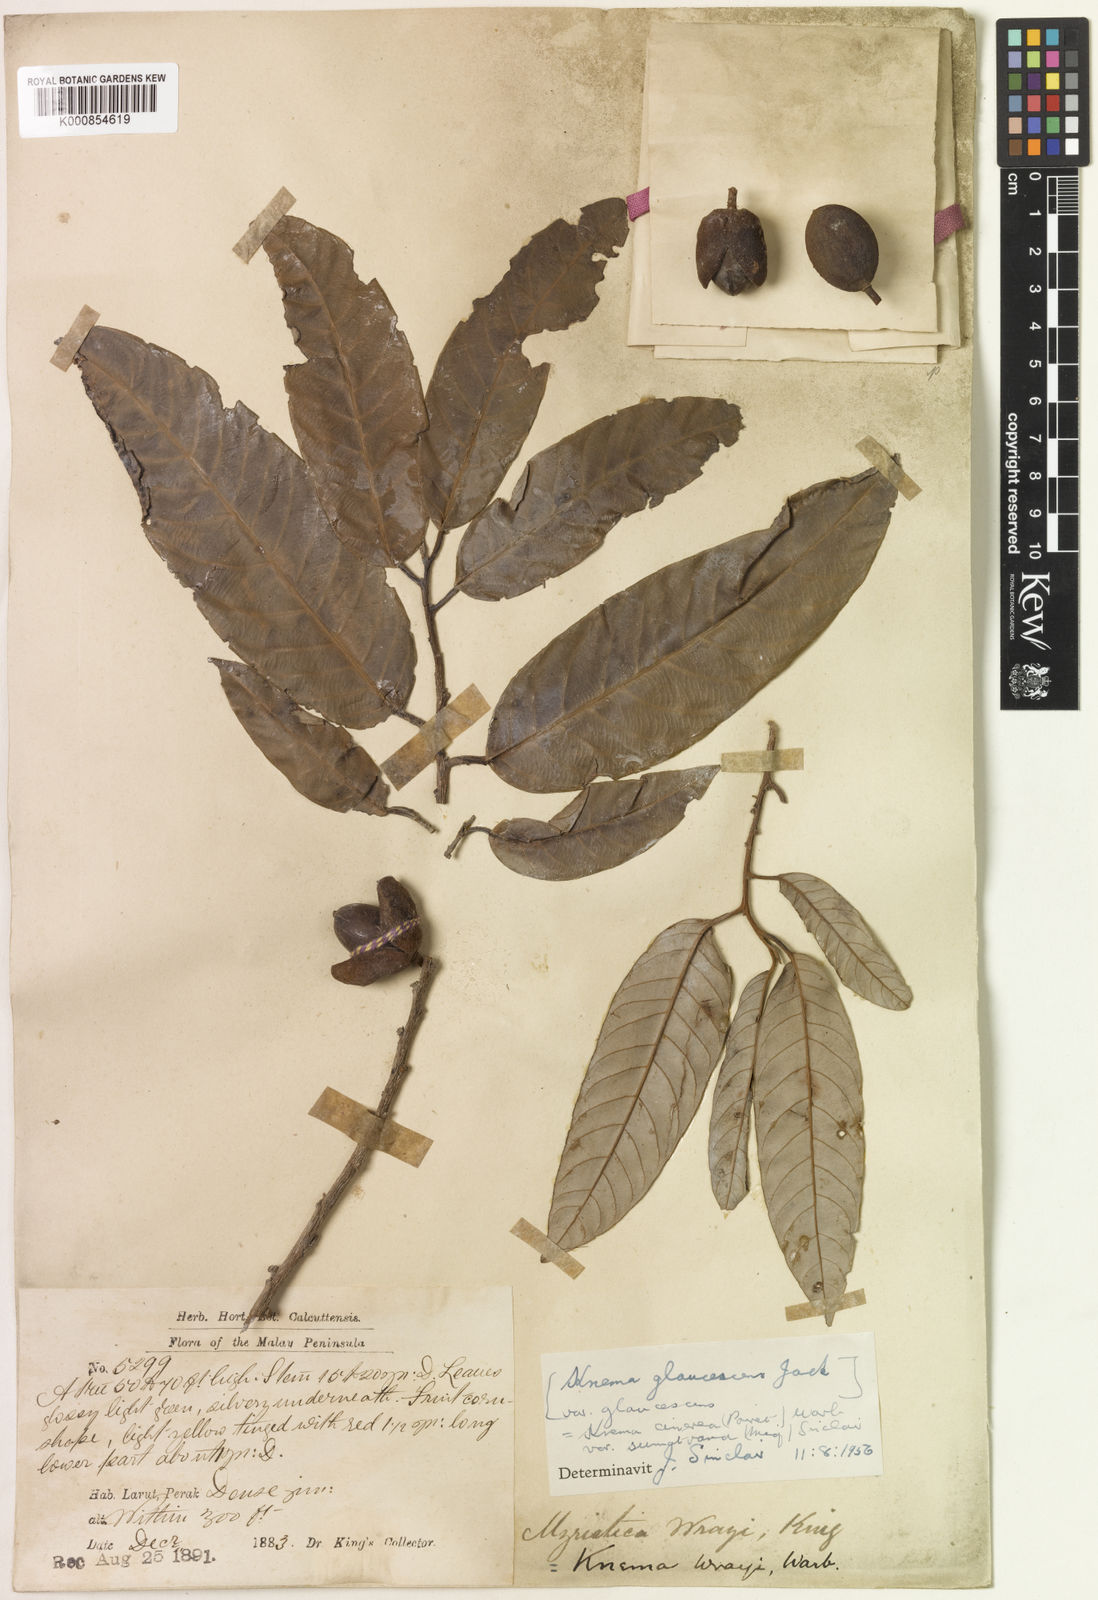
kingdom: Plantae
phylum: Tracheophyta
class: Magnoliopsida
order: Magnoliales
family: Myristicaceae
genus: Knema
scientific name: Knema cinerea
